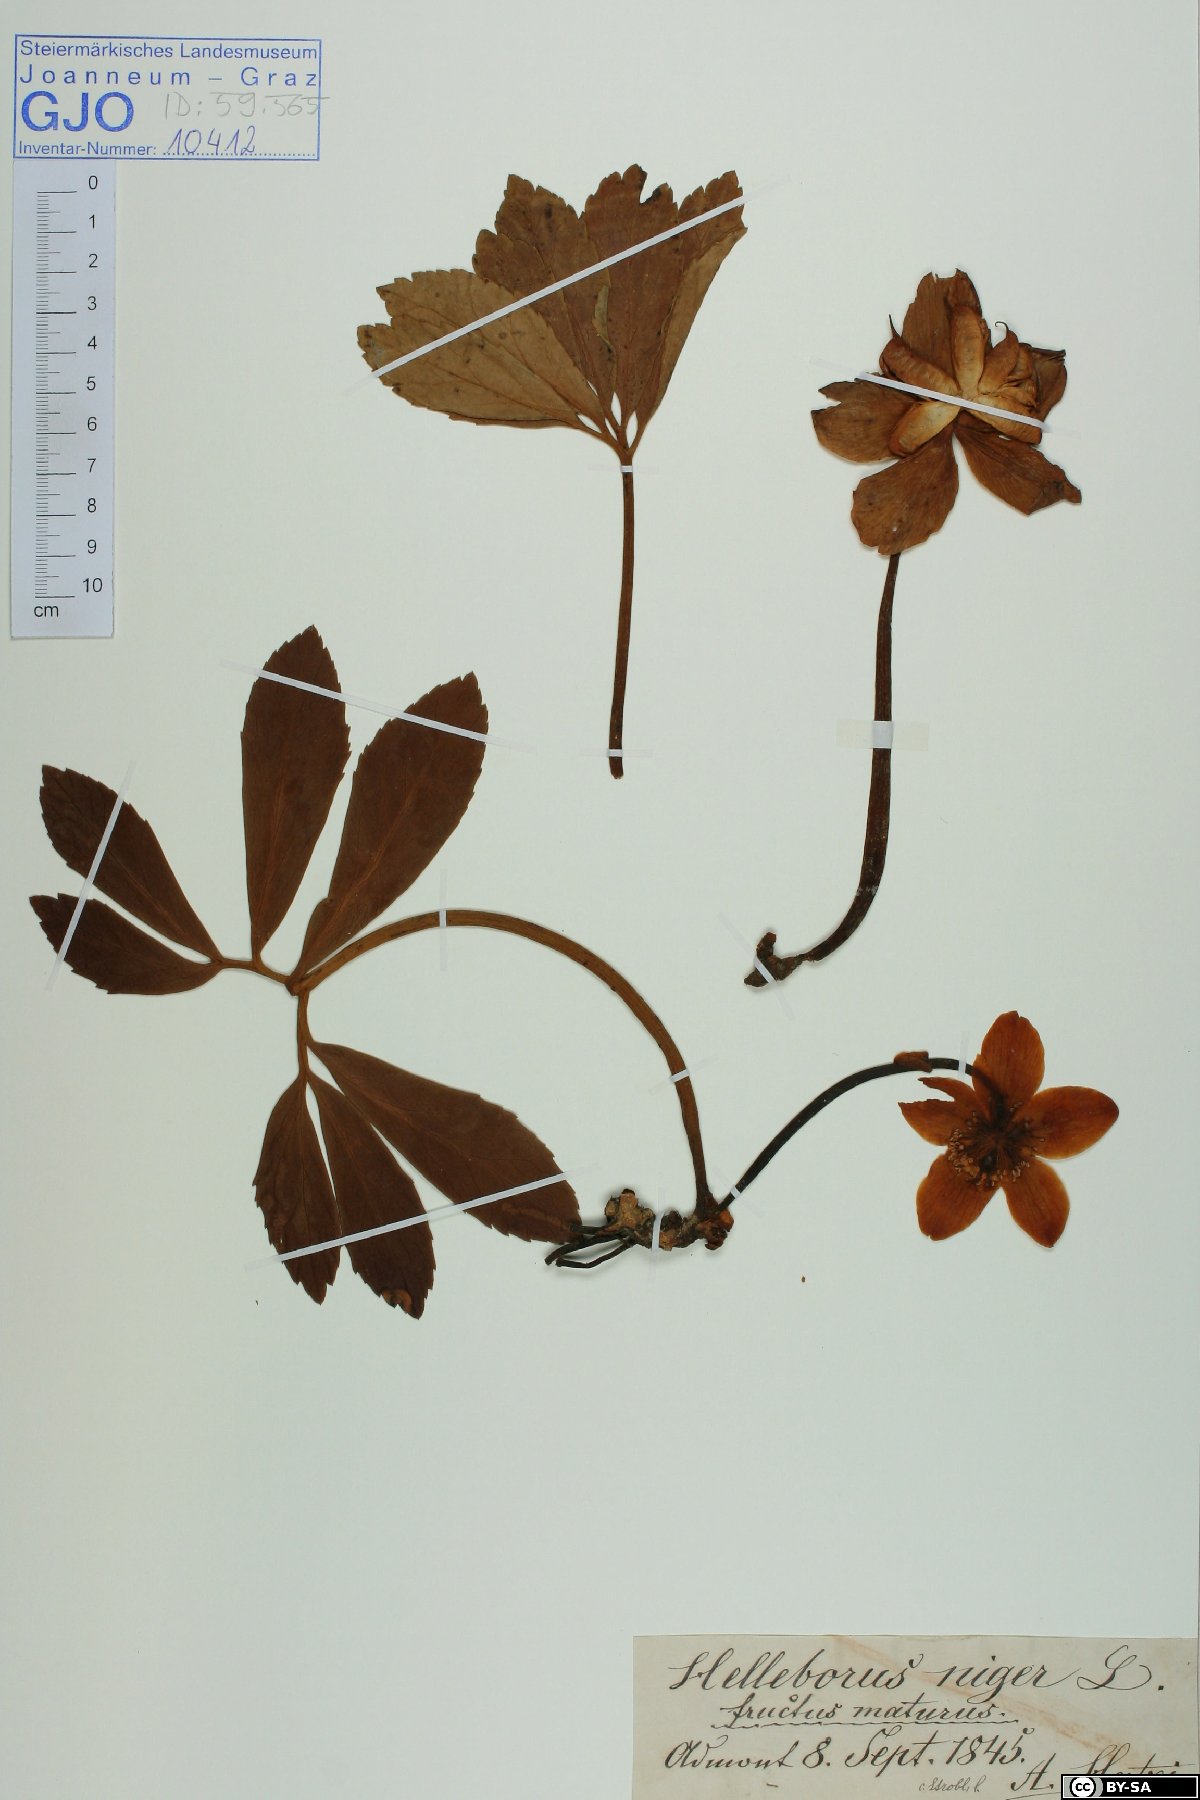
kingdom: Plantae
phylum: Tracheophyta
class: Magnoliopsida
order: Ranunculales
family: Ranunculaceae
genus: Helleborus
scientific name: Helleborus niger
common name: Black hellebore
